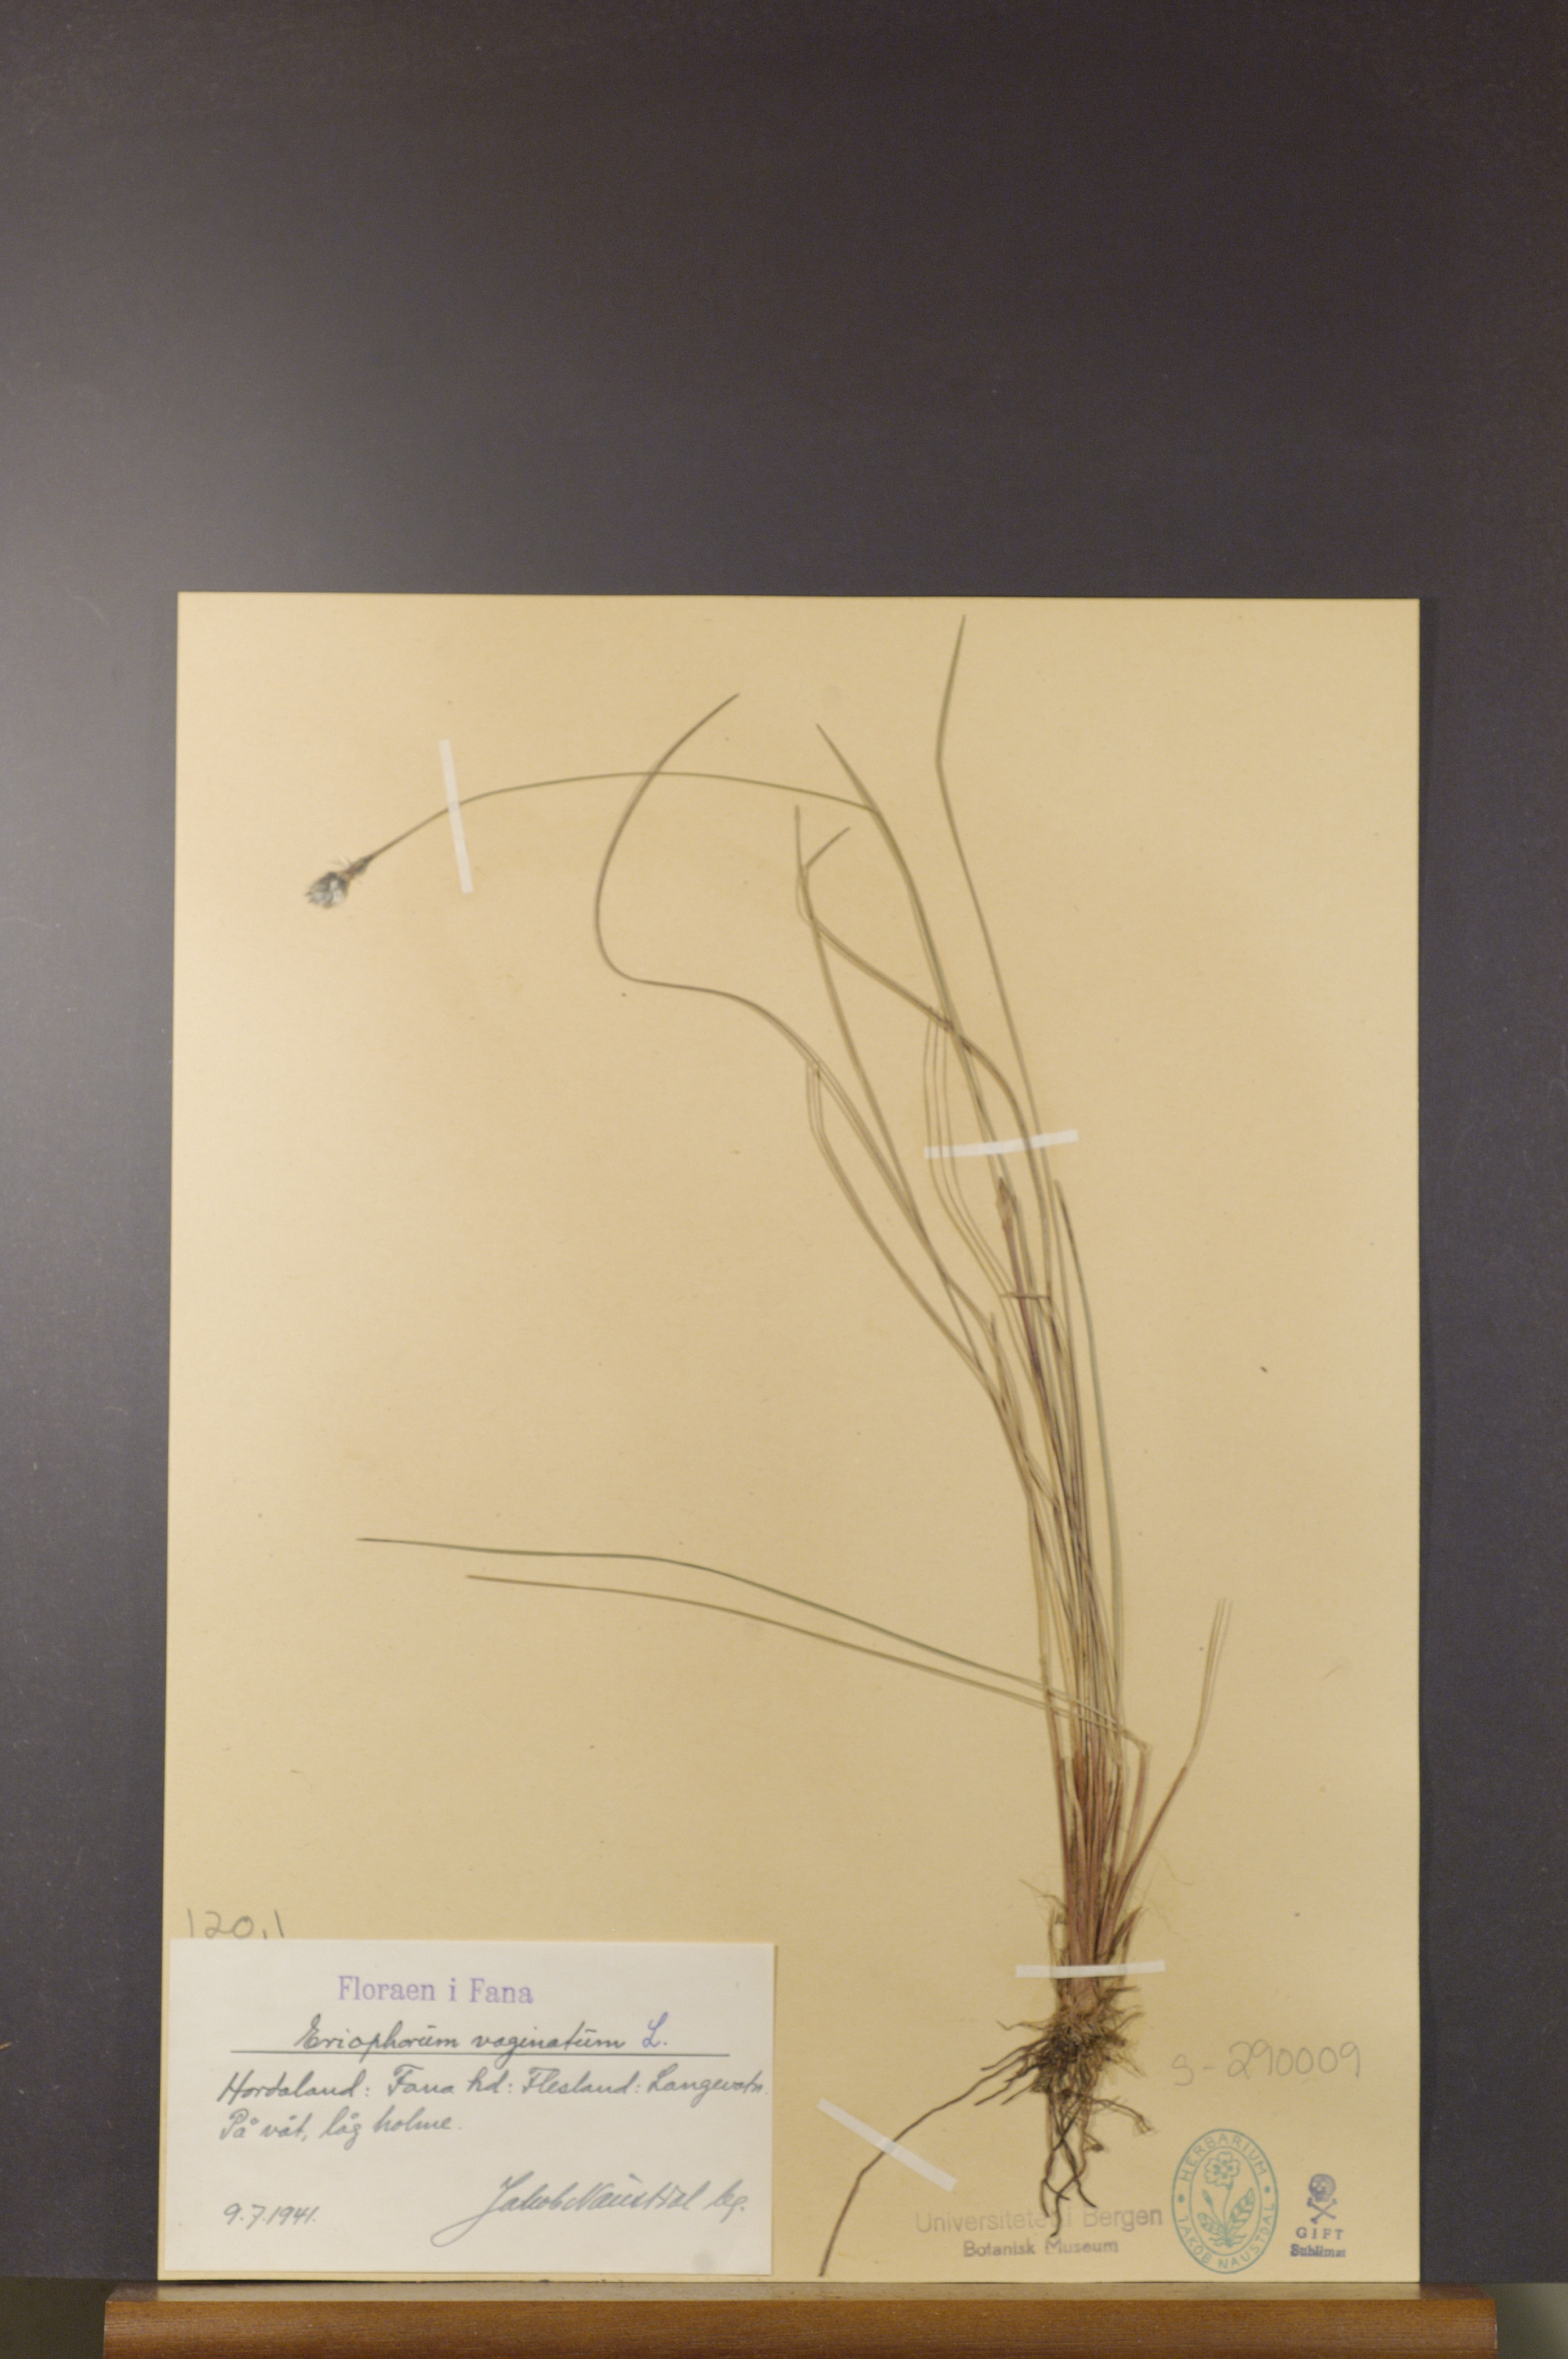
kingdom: Plantae
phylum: Tracheophyta
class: Liliopsida
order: Poales
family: Cyperaceae
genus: Eriophorum
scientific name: Eriophorum vaginatum
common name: Hare's-tail cottongrass
